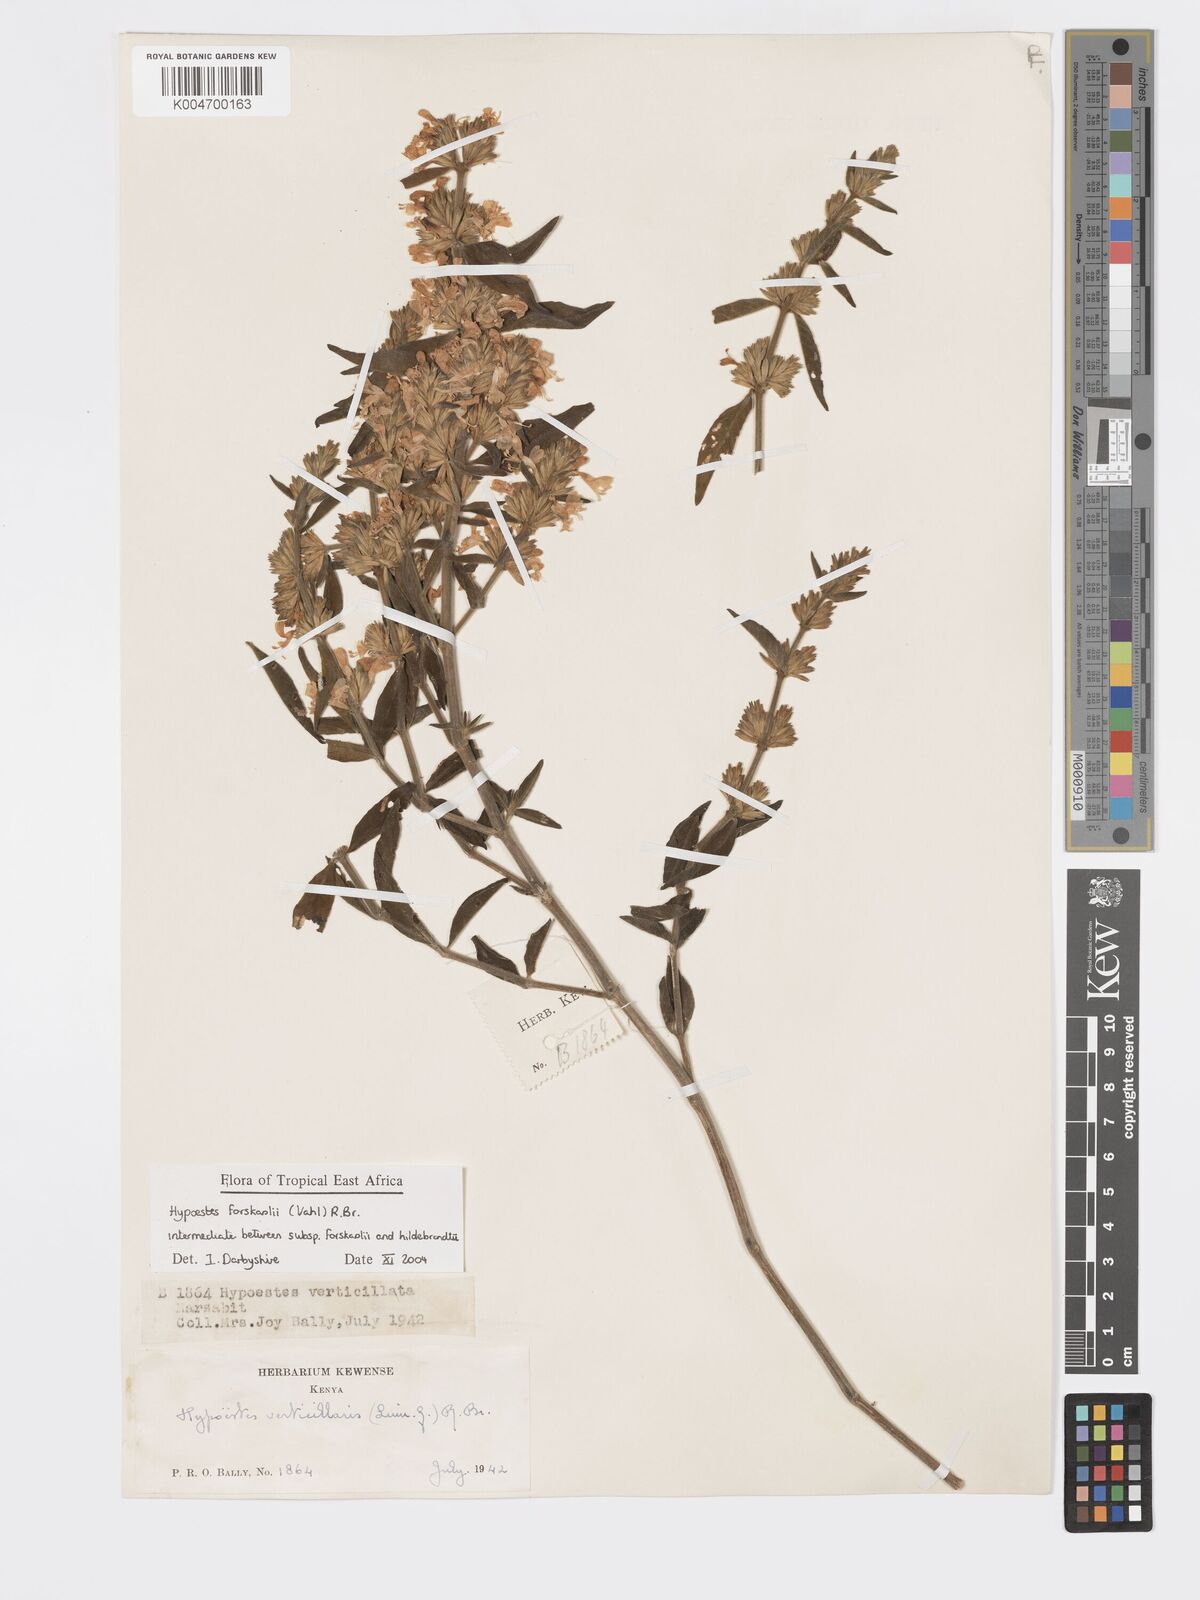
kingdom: Plantae
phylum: Tracheophyta
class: Magnoliopsida
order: Lamiales
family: Acanthaceae
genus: Hypoestes
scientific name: Hypoestes forskaolii
